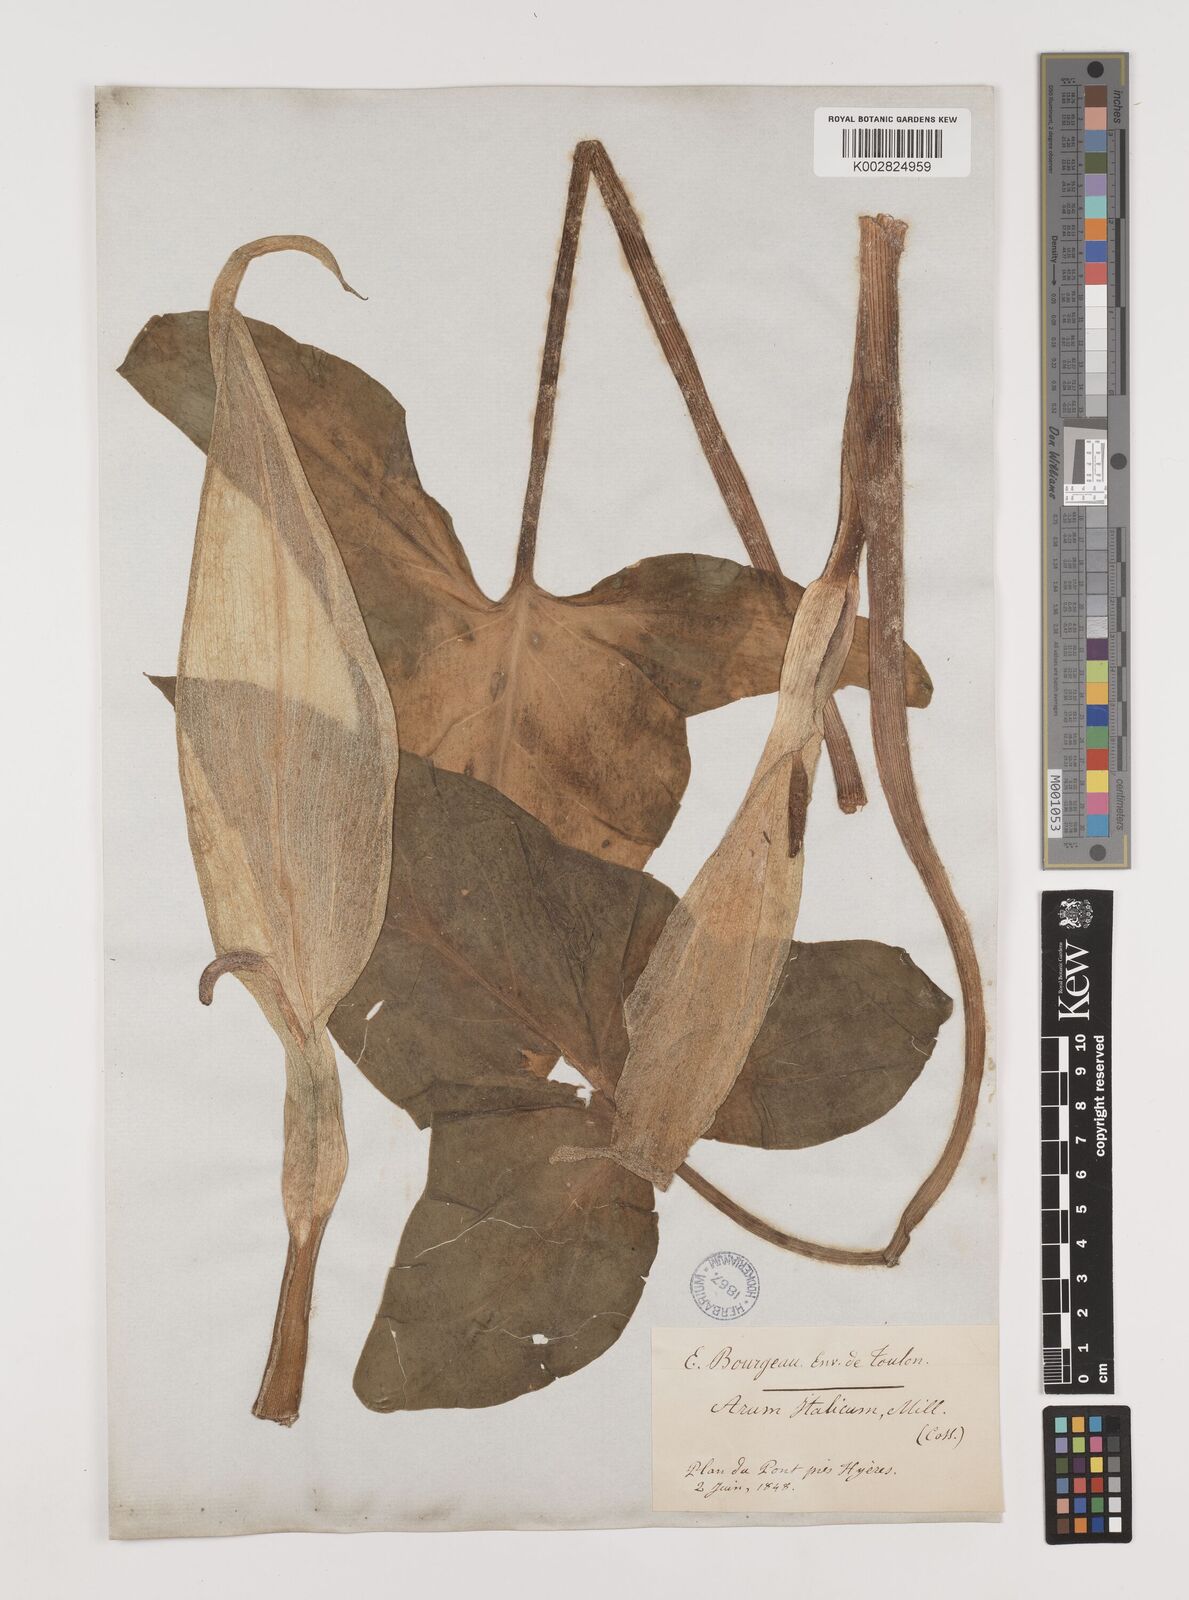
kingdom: Plantae
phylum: Tracheophyta
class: Liliopsida
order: Alismatales
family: Araceae
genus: Arum
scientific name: Arum italicum
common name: Italian lords-and-ladies
